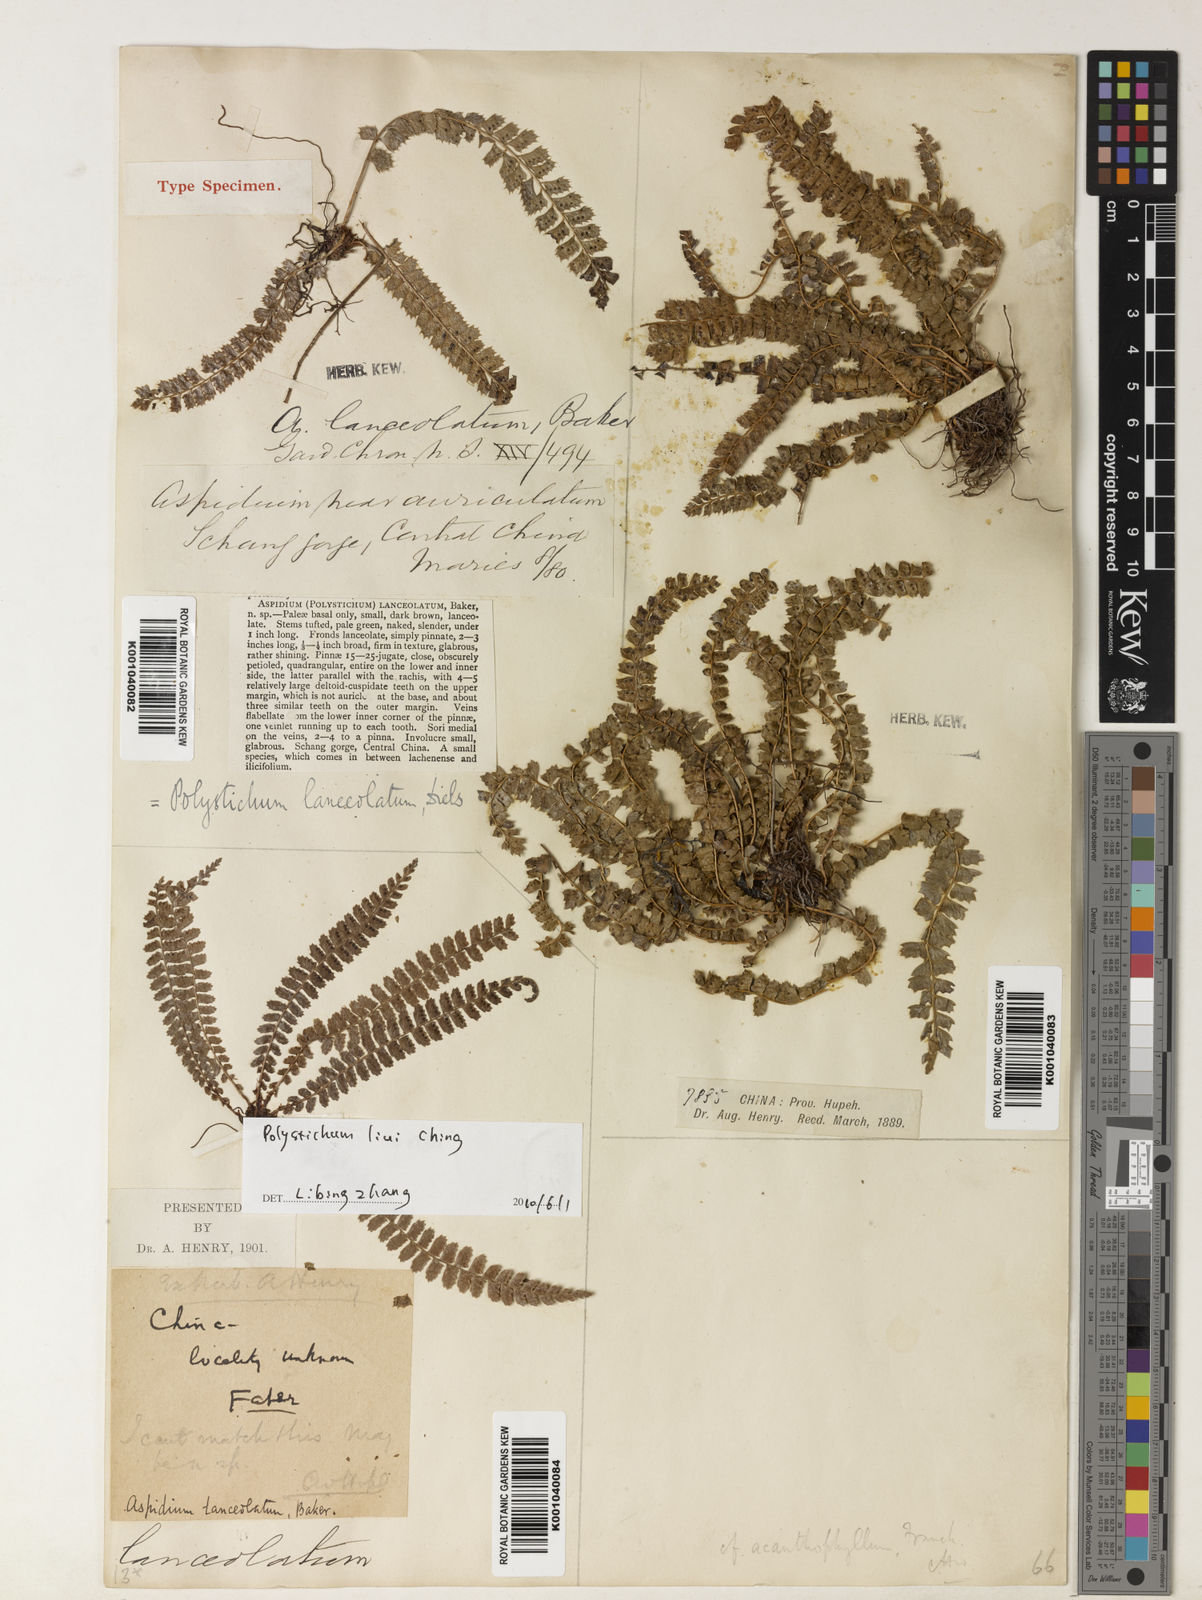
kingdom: Plantae
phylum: Tracheophyta
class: Polypodiopsida
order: Polypodiales
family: Dryopteridaceae
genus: Polystichum
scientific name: Polystichum lanceolatum
